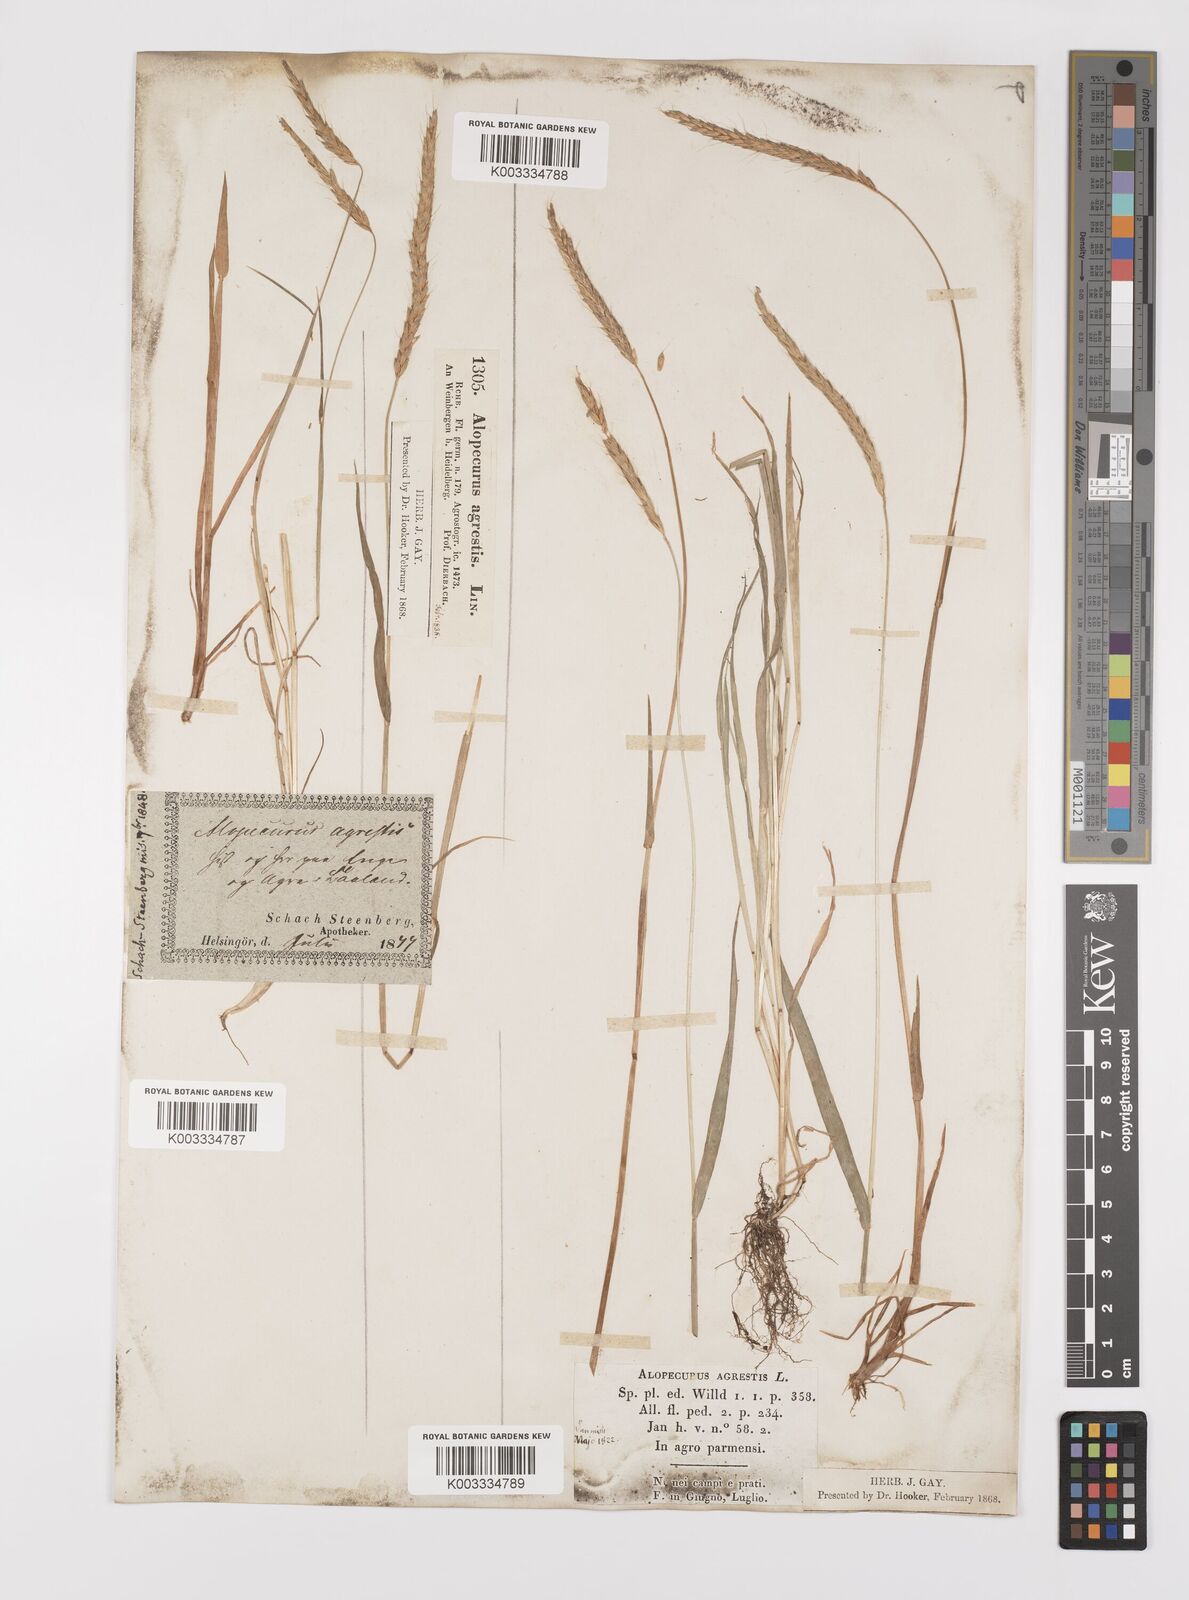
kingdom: Plantae
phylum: Tracheophyta
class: Liliopsida
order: Poales
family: Poaceae
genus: Alopecurus
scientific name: Alopecurus myosuroides
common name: Black-grass
